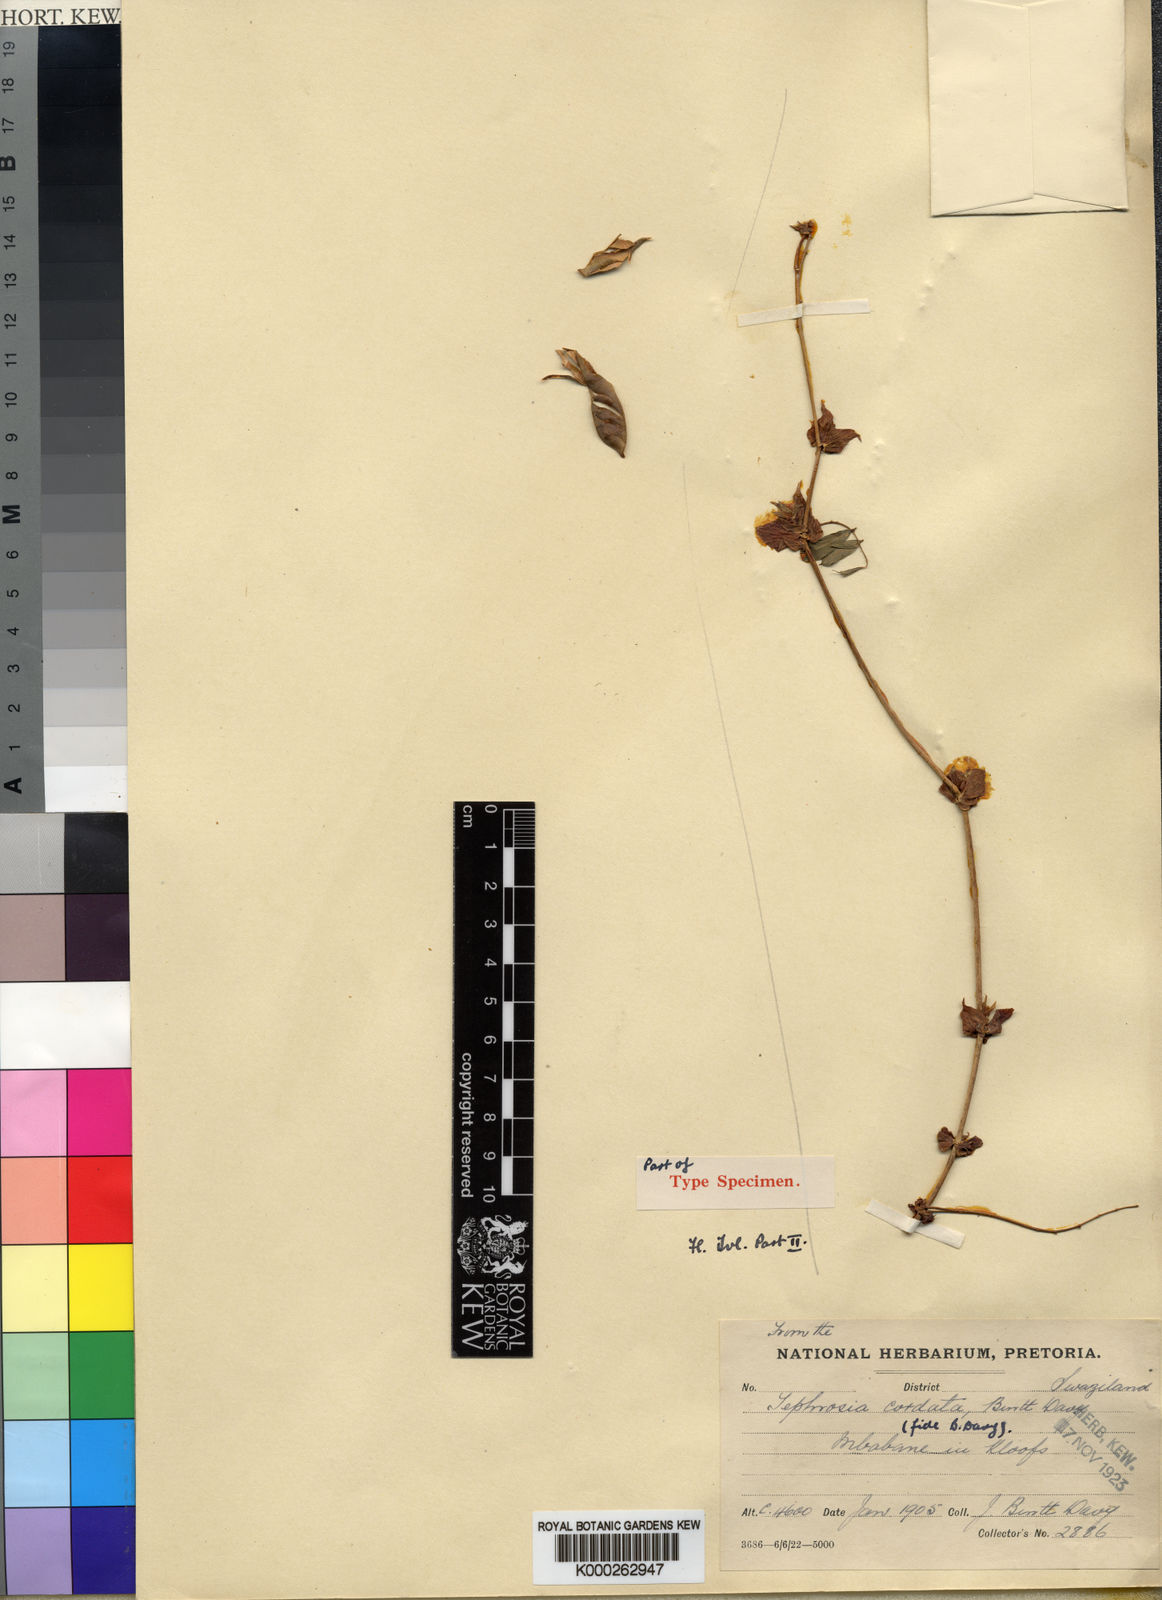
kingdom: Plantae
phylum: Tracheophyta
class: Magnoliopsida
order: Fabales
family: Fabaceae
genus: Tephrosia
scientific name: Tephrosia cordata
